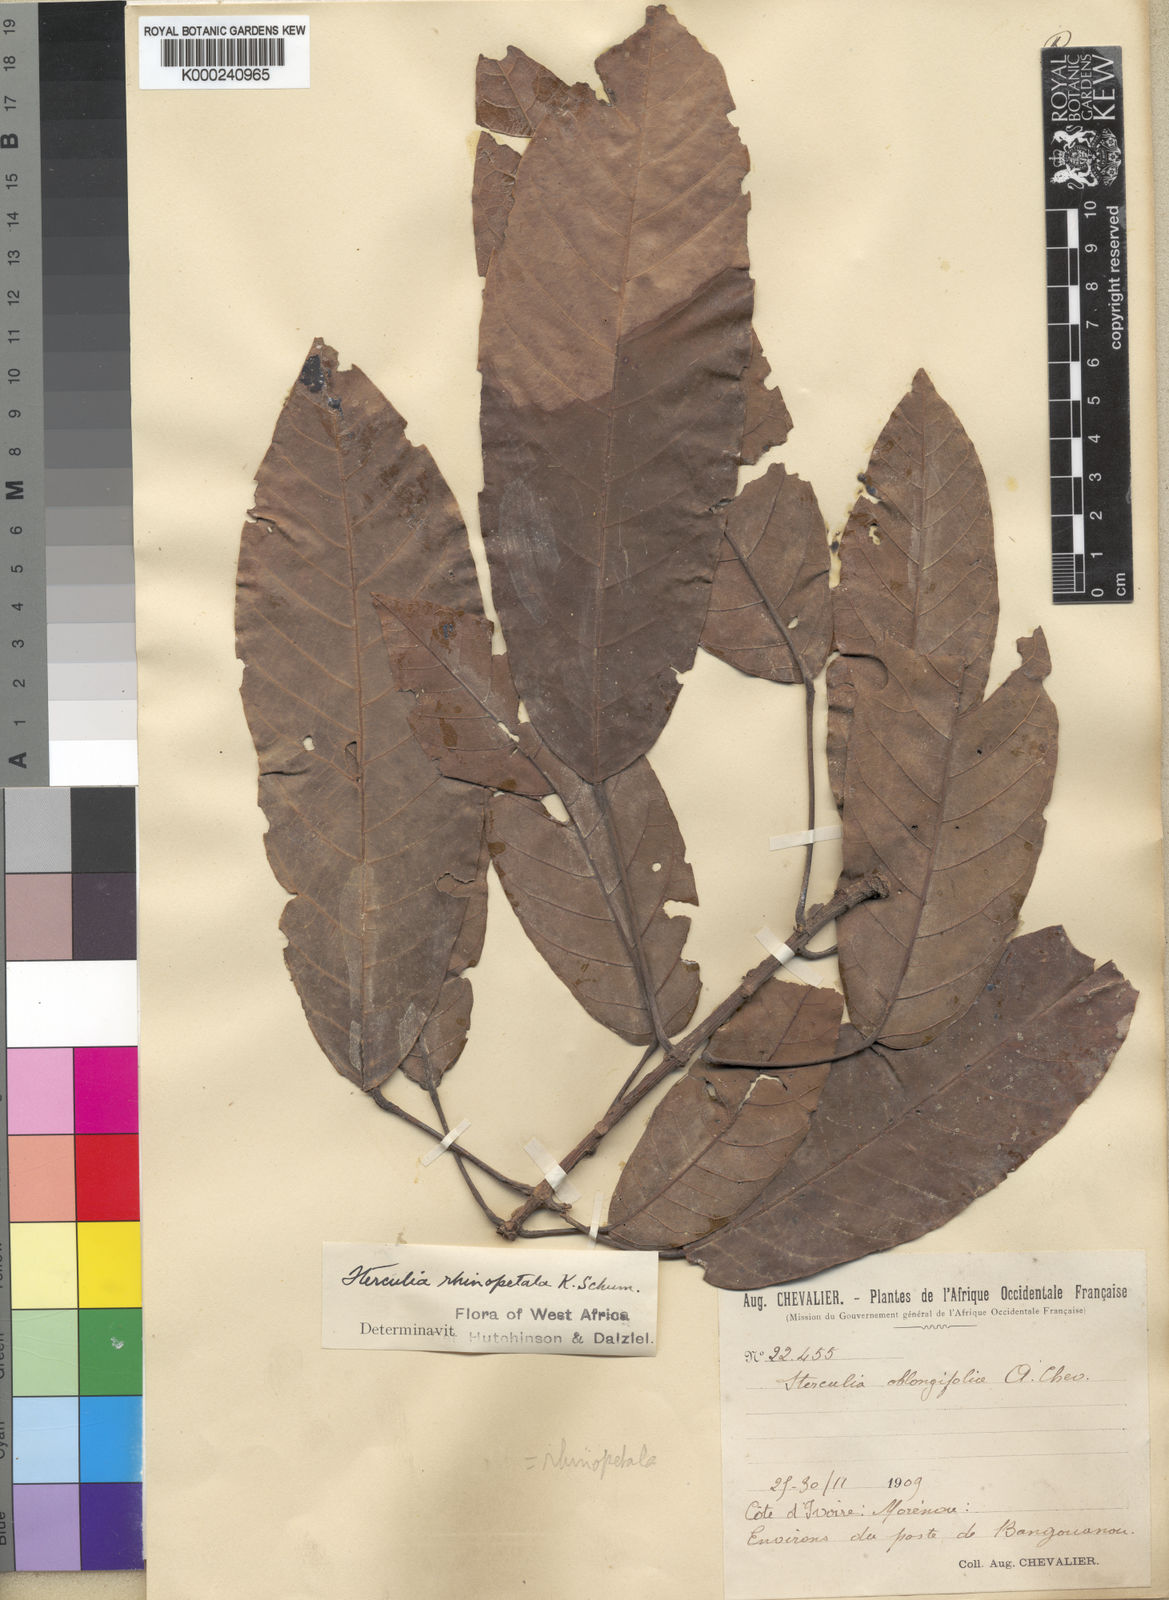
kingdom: Plantae
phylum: Tracheophyta
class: Magnoliopsida
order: Malvales
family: Malvaceae
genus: Sterculia
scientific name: Sterculia rhinopetala
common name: Brown sterculia
